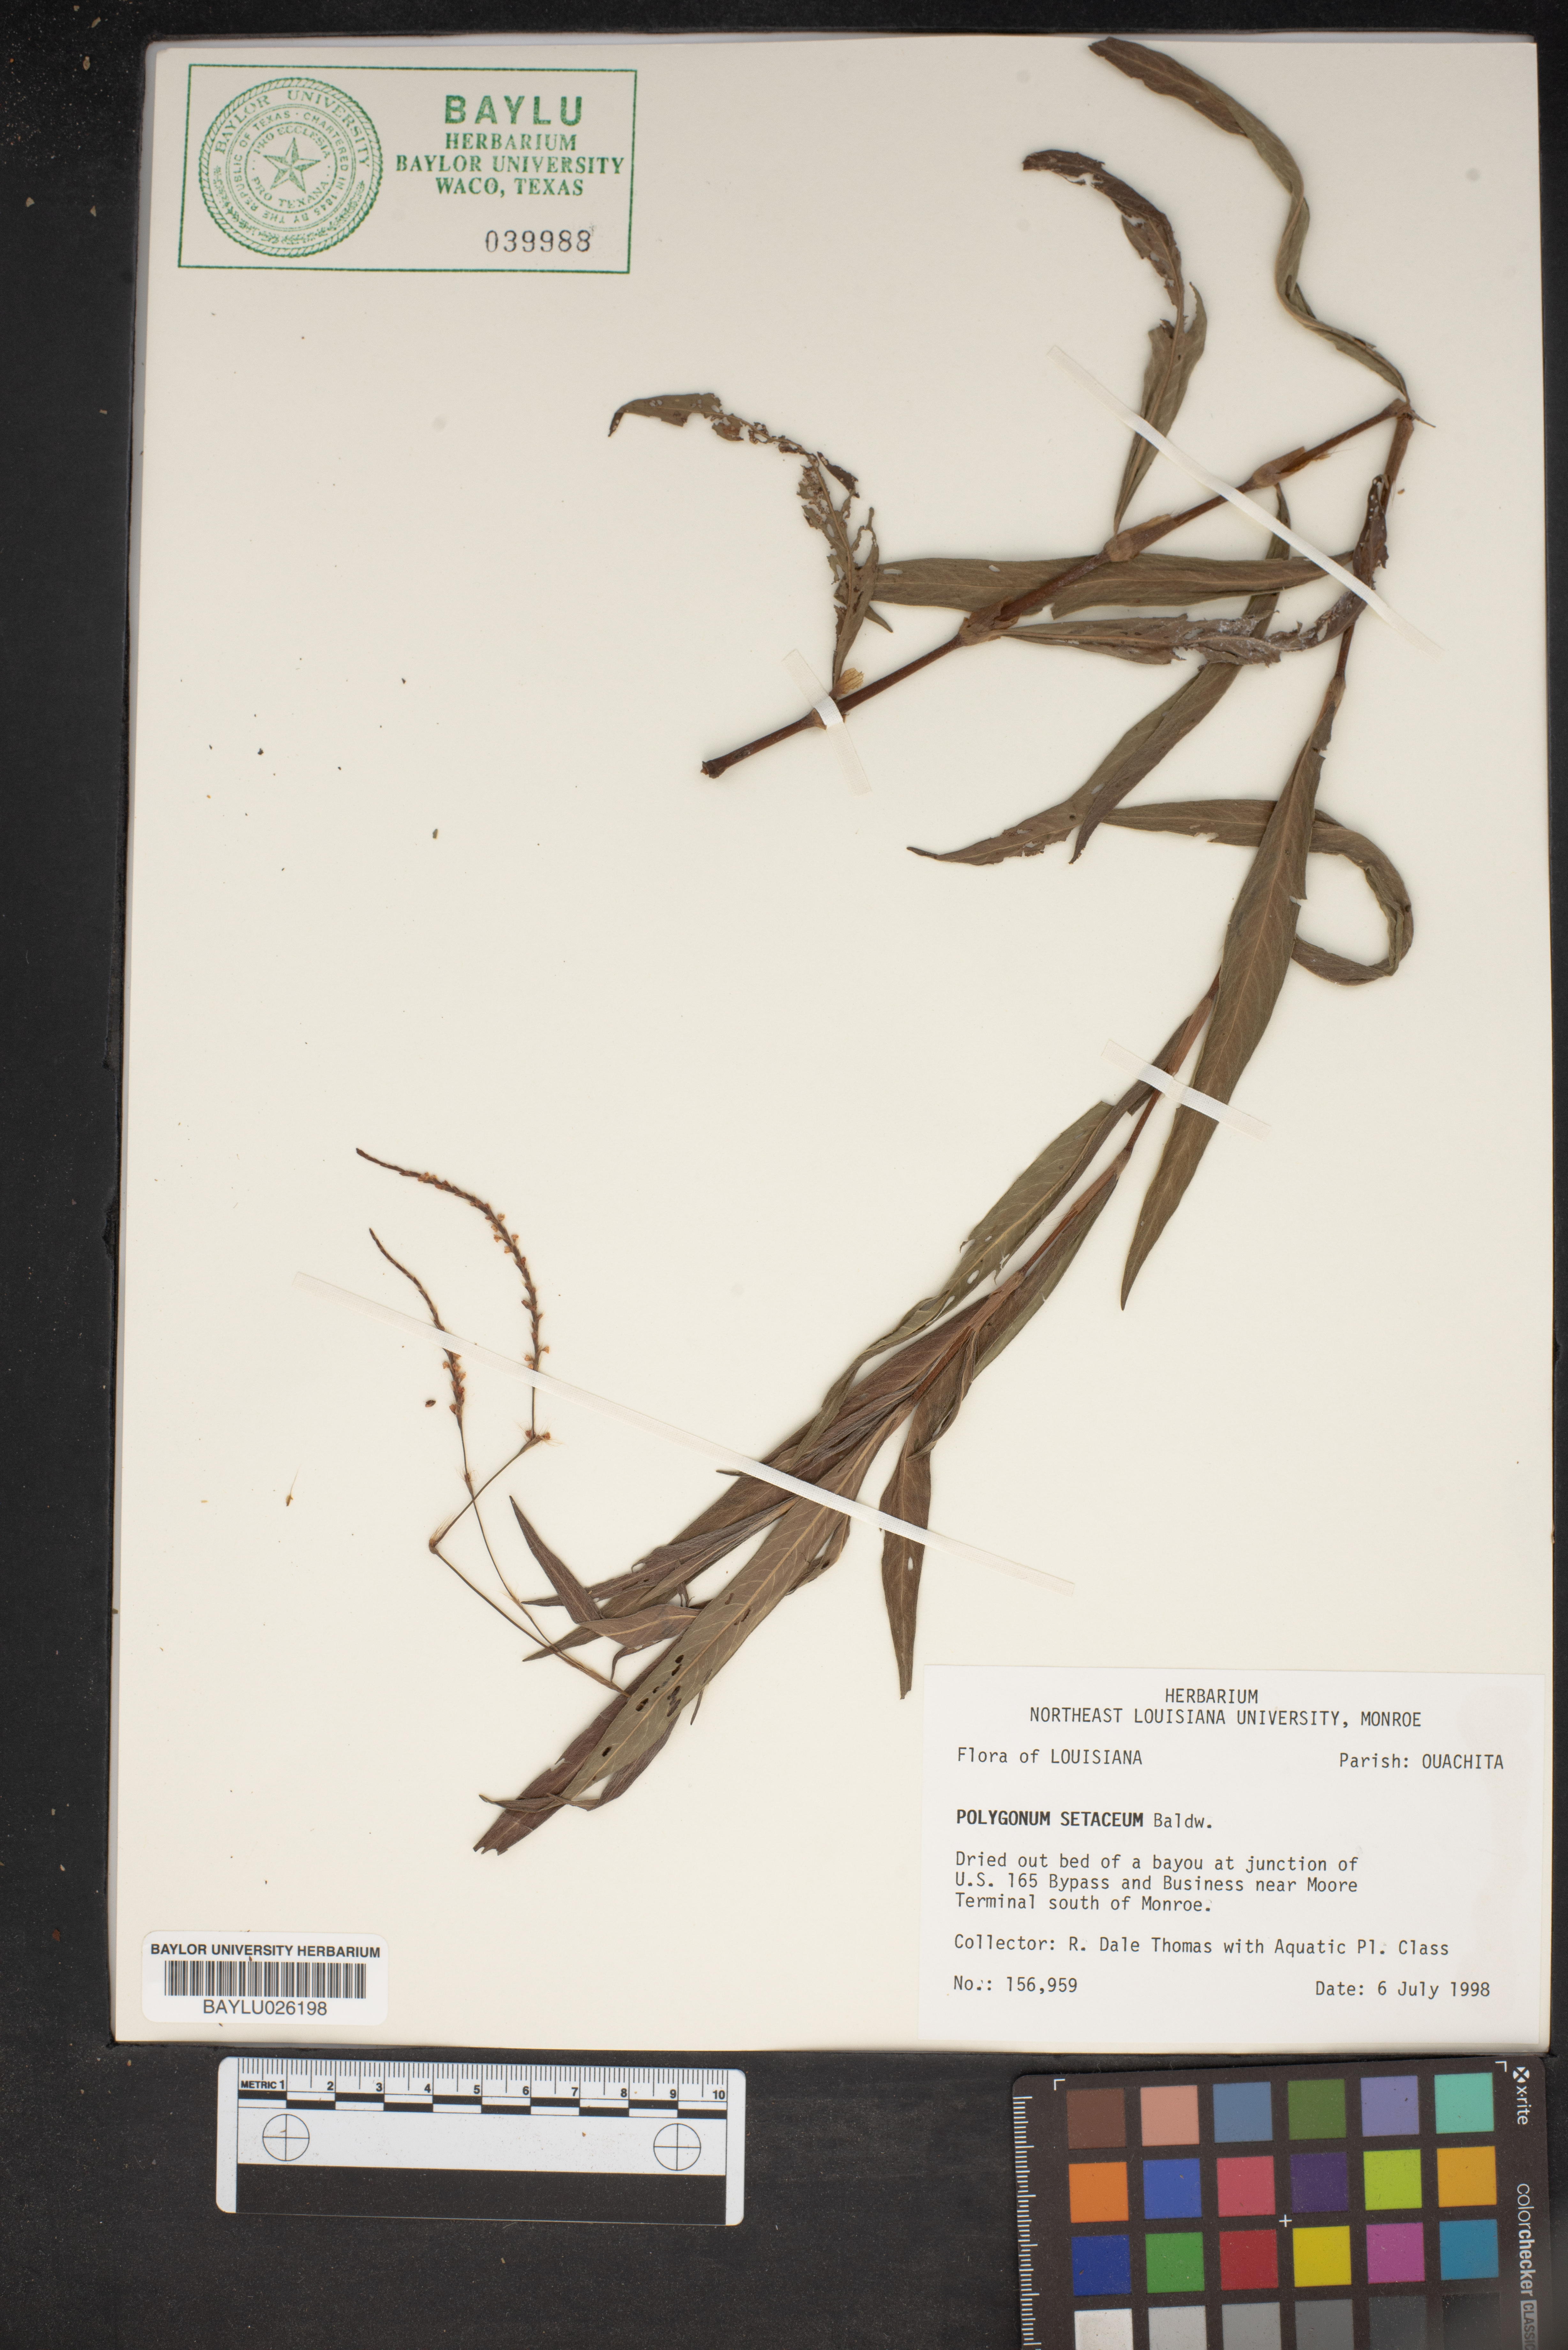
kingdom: Plantae
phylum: Tracheophyta
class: Magnoliopsida
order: Caryophyllales
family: Polygonaceae
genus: Persicaria
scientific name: Persicaria setacea
